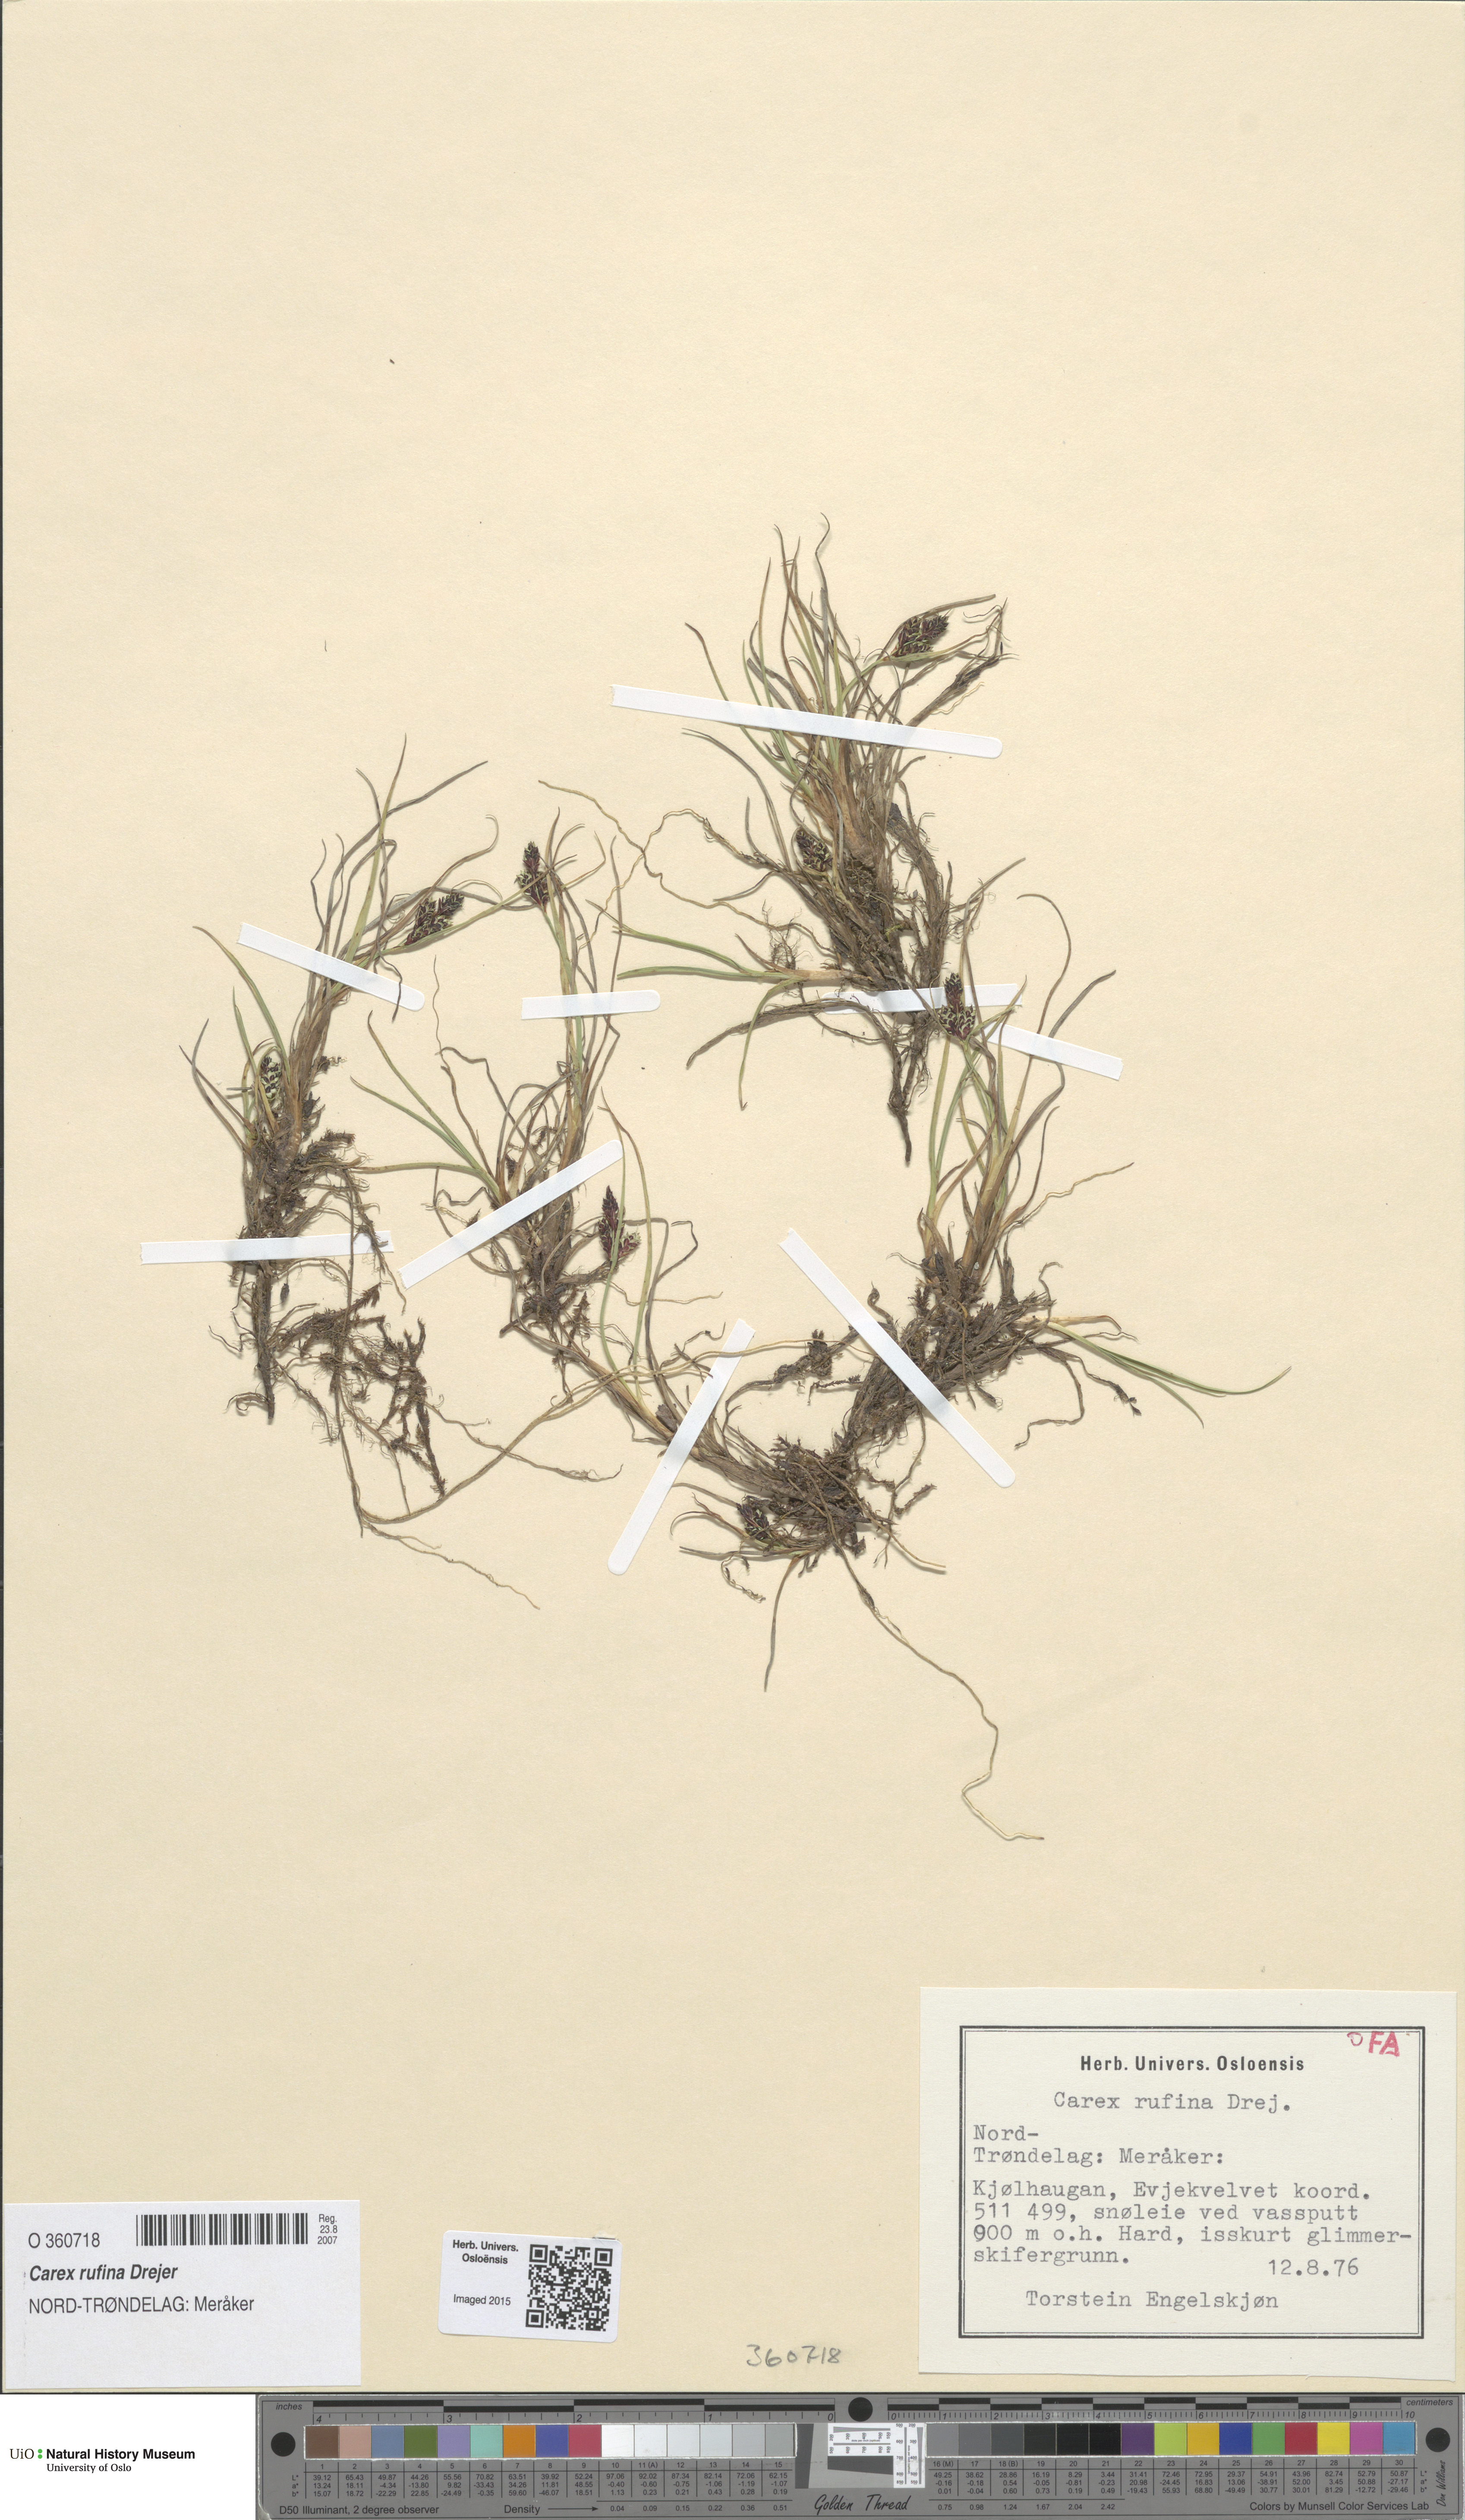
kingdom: Plantae
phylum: Tracheophyta
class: Liliopsida
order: Poales
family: Cyperaceae
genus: Carex
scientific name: Carex rufina
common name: Reddish sedge
